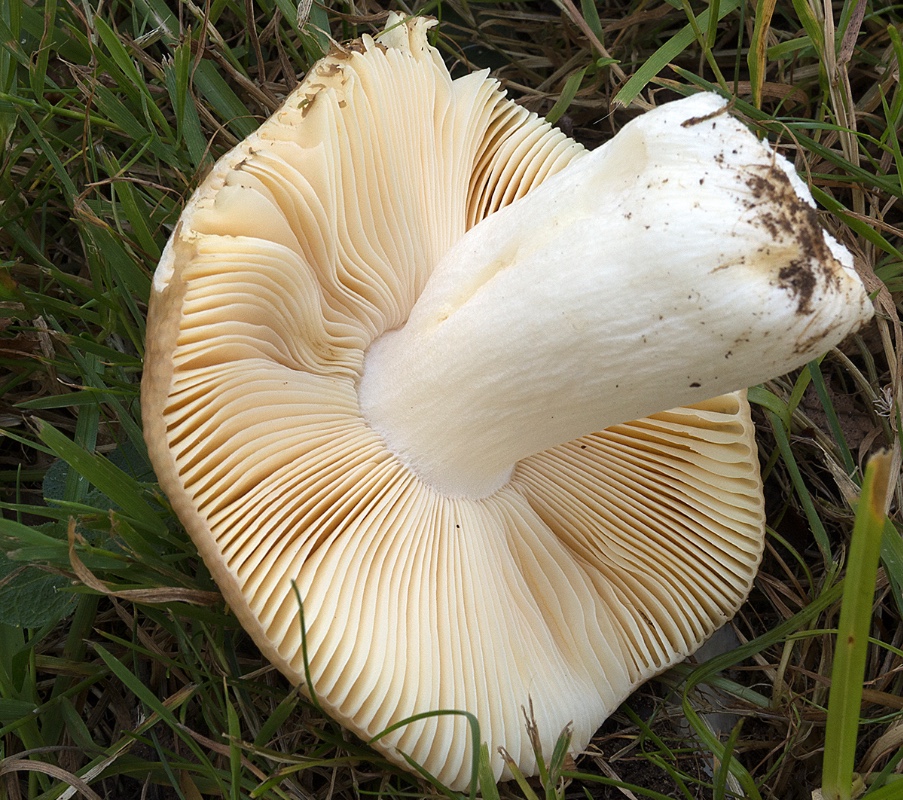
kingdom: Fungi
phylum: Basidiomycota
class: Agaricomycetes
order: Russulales
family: Russulaceae
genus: Russula
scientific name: Russula cuprea
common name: kanel-skørhat
